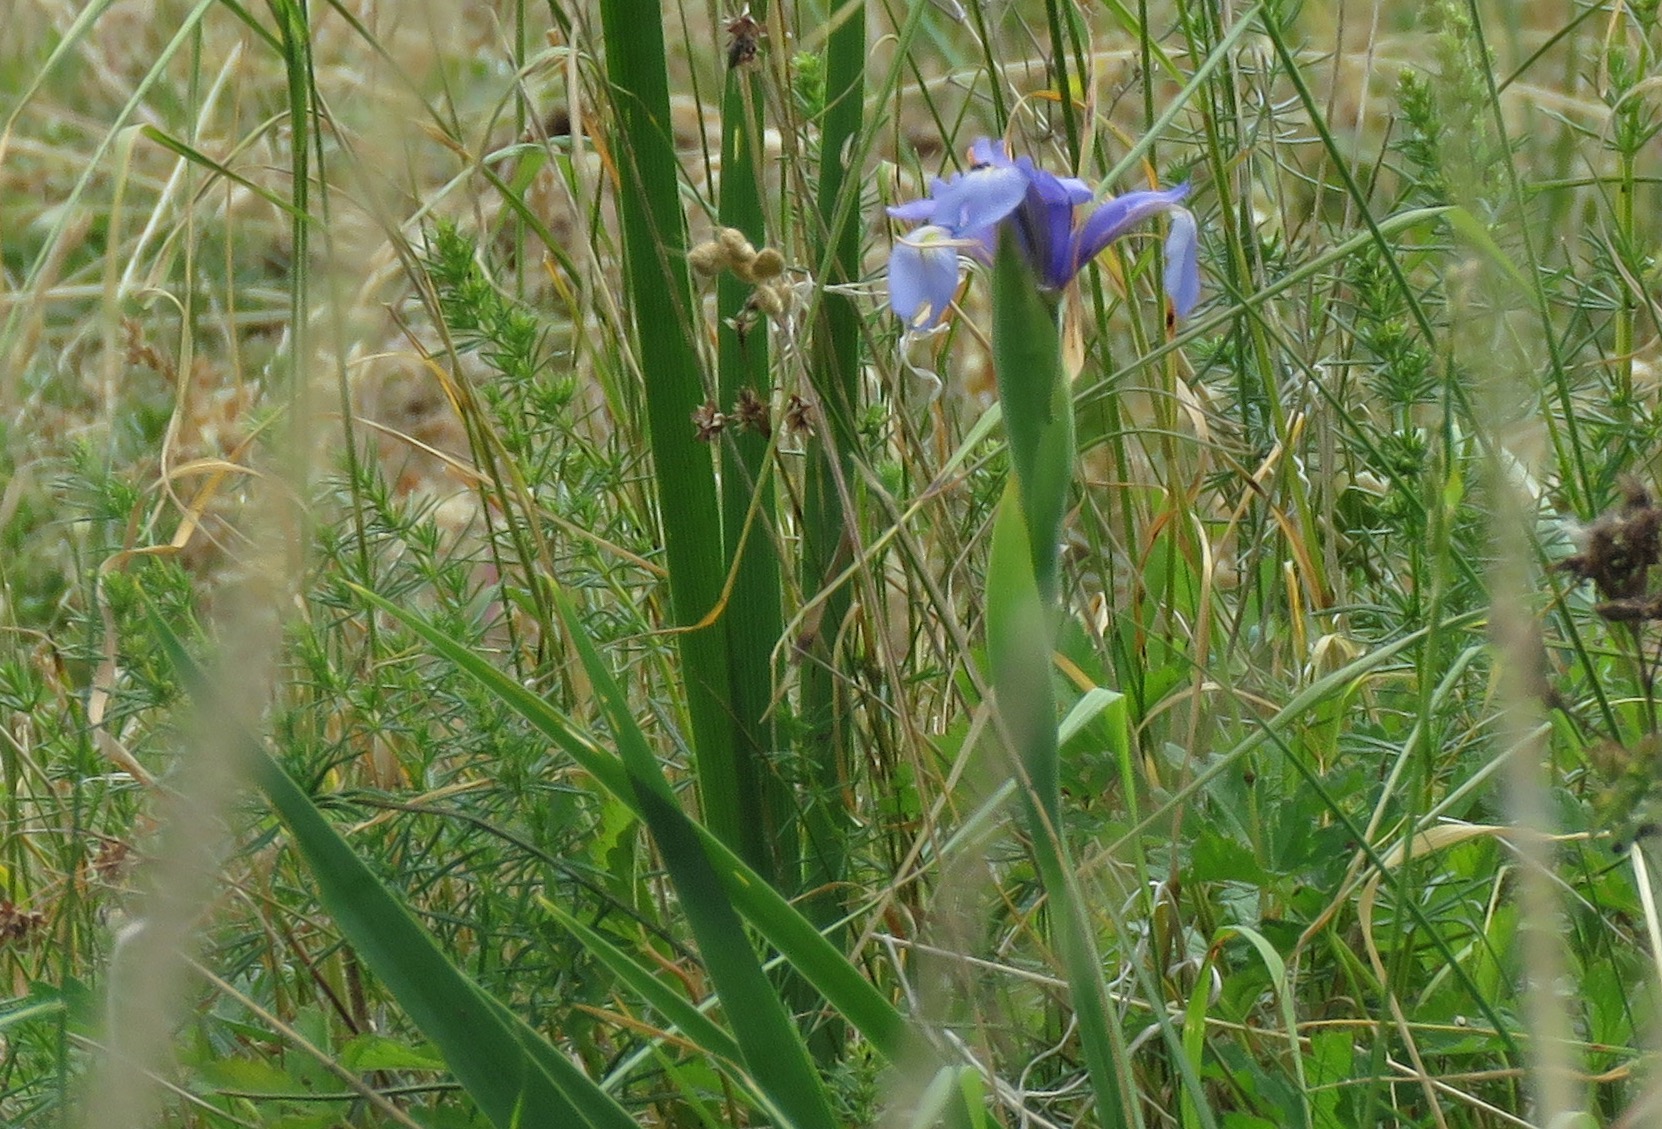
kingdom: Plantae
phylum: Tracheophyta
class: Liliopsida
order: Asparagales
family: Iridaceae
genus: Iris
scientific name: Iris spuria
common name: Blå iris
